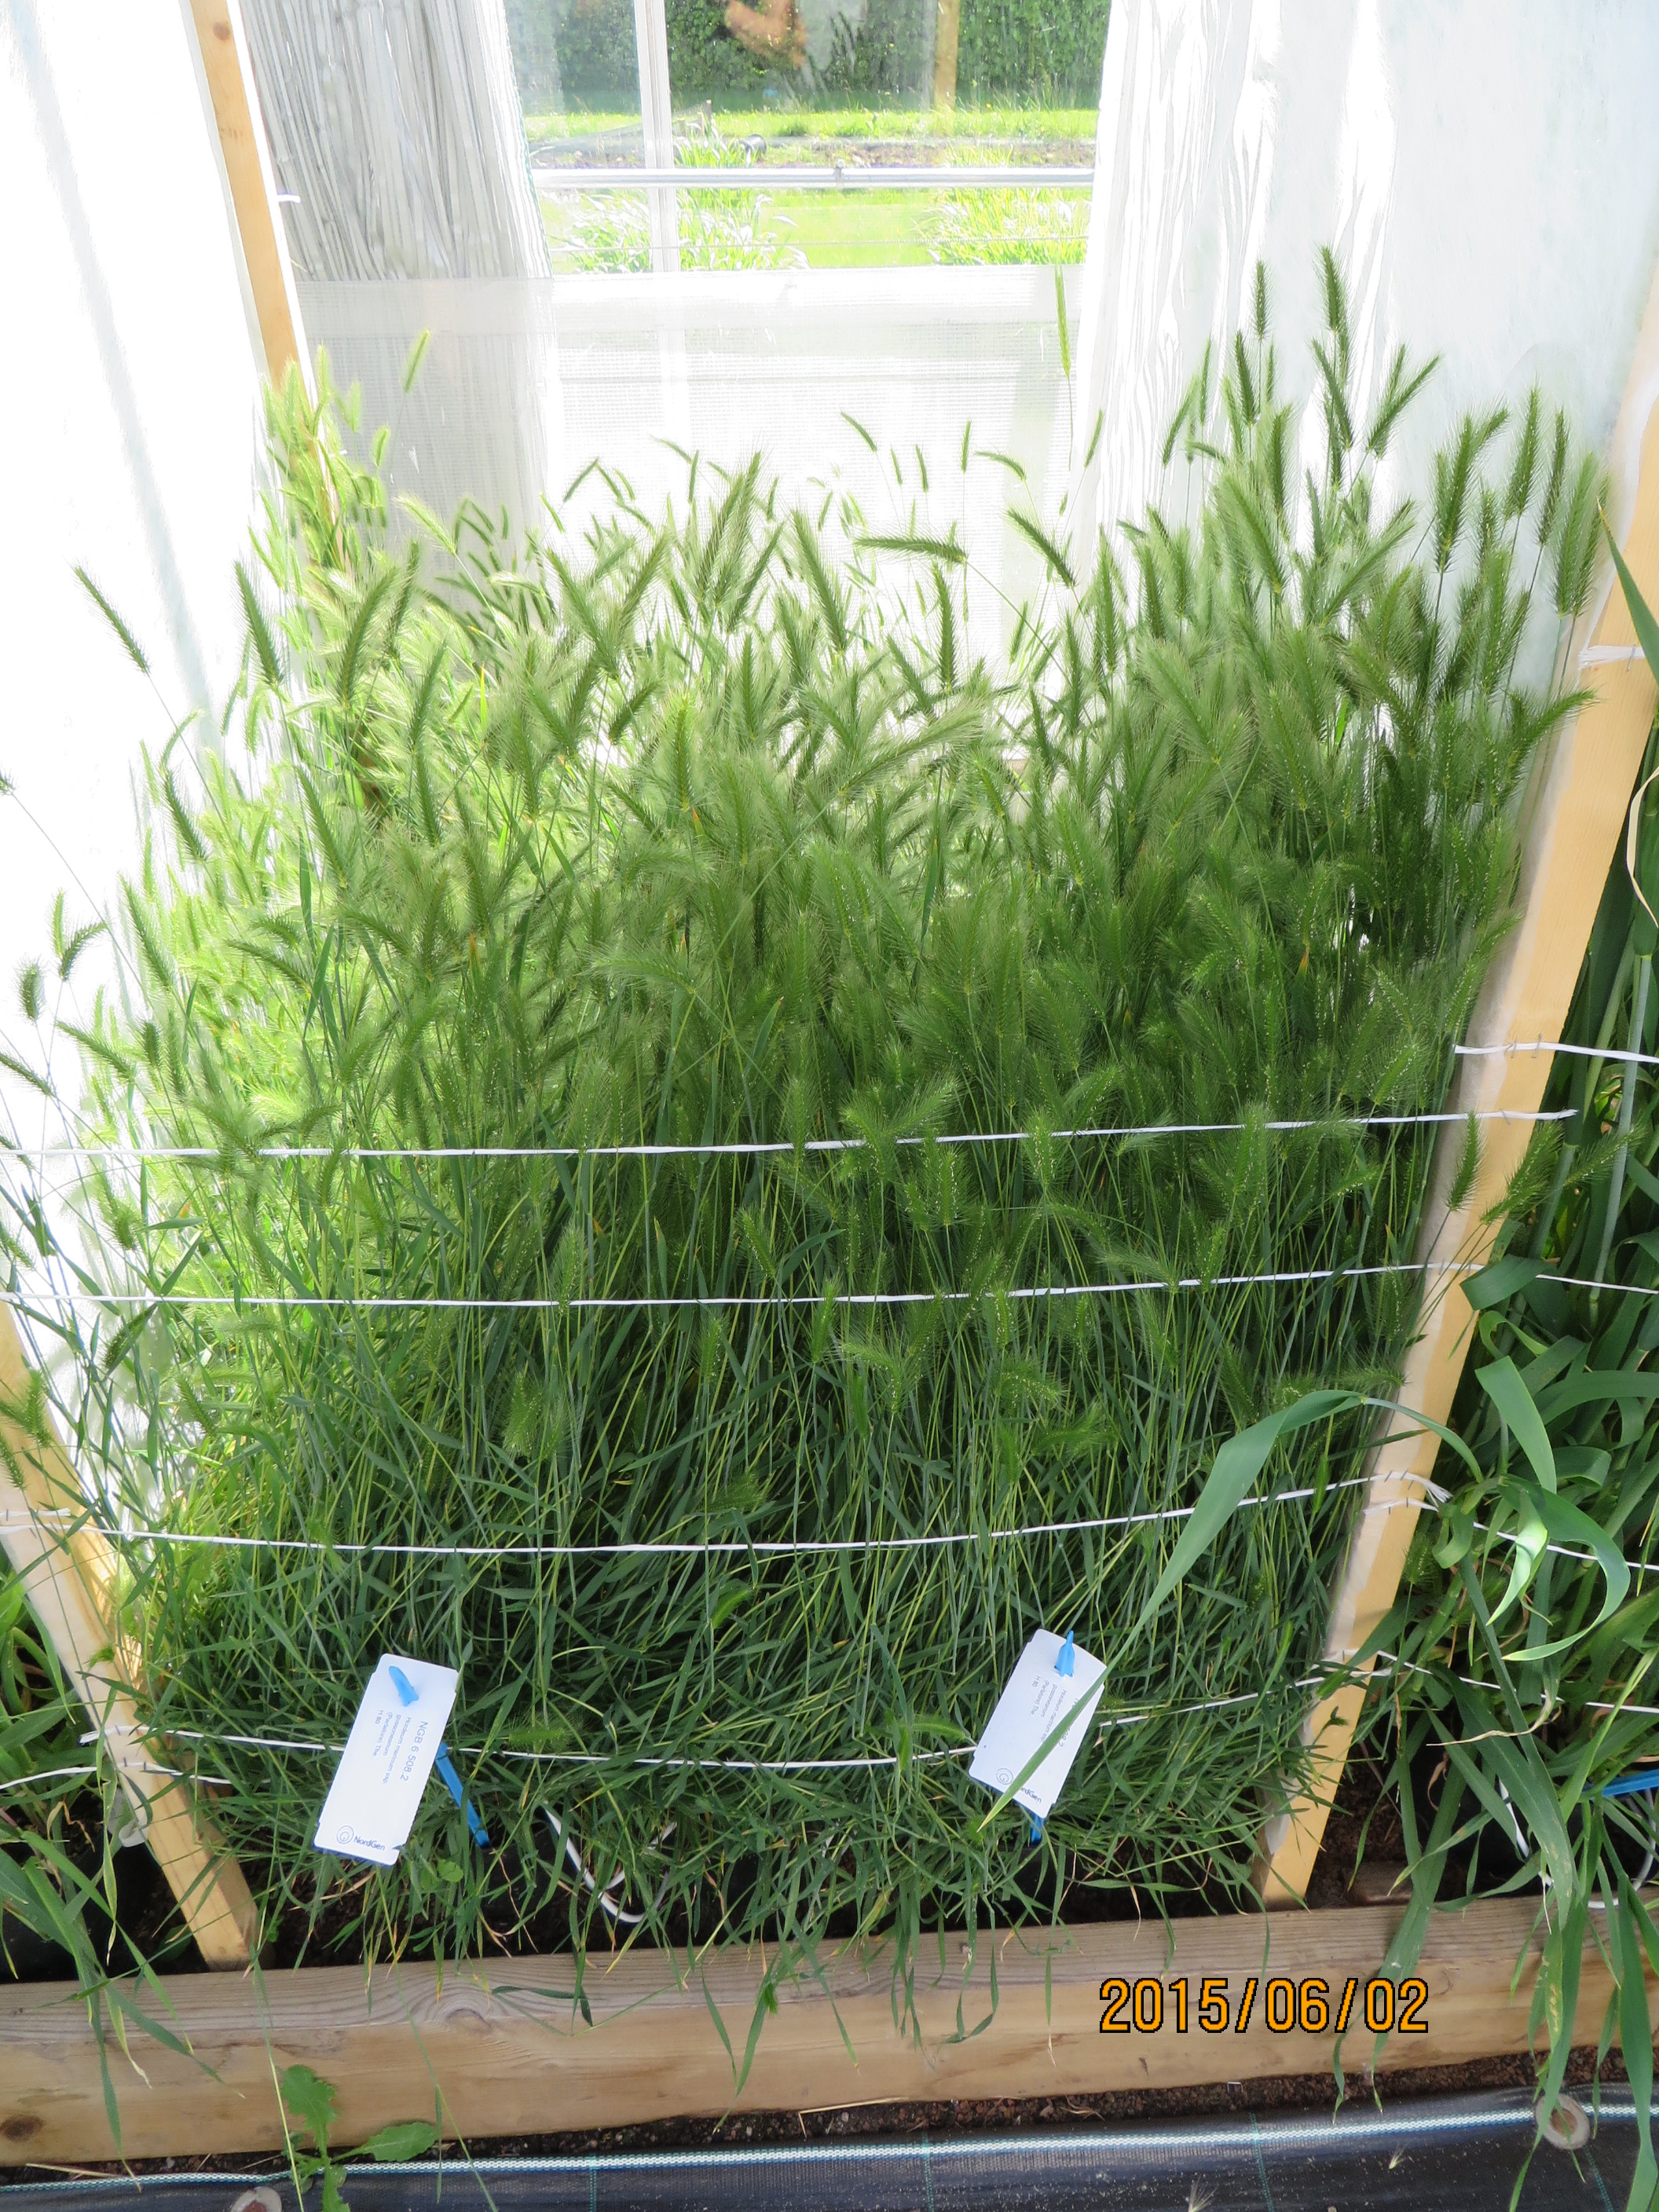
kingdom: Plantae
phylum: Tracheophyta
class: Liliopsida
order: Poales
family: Poaceae
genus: Hordeum
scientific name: Hordeum marinum
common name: Sea barley
